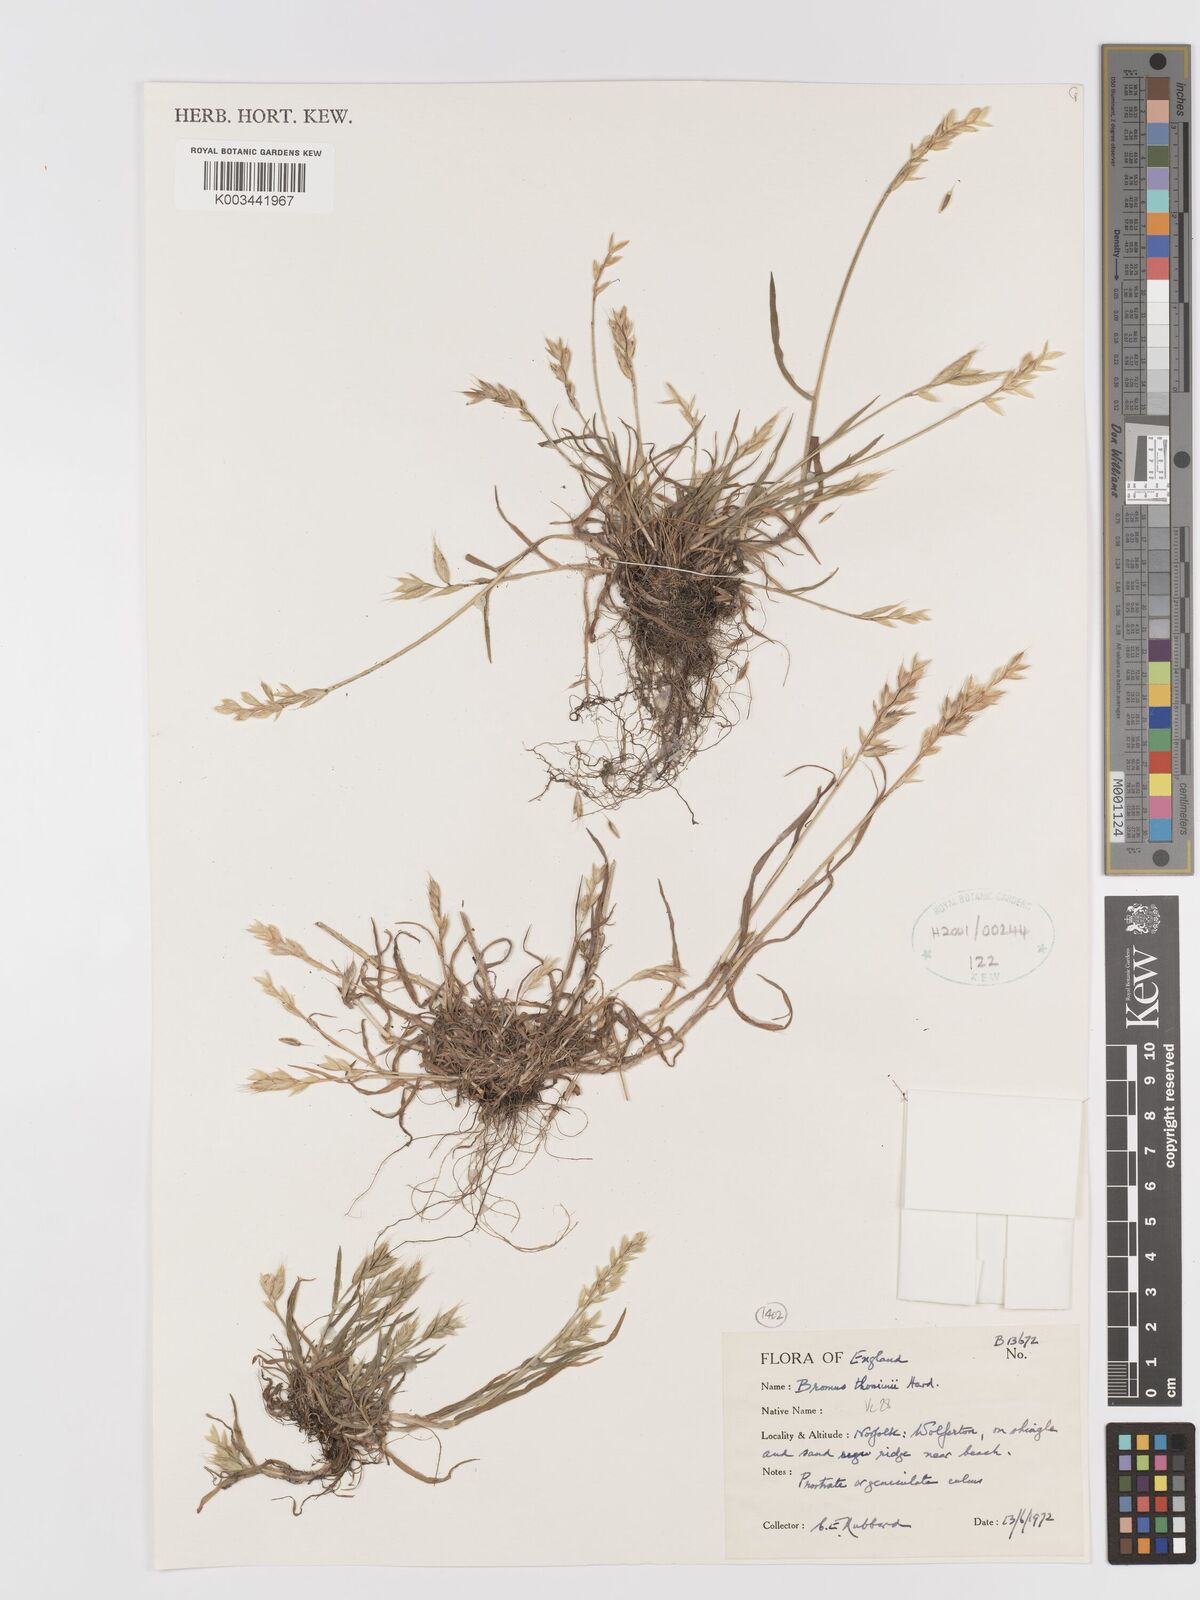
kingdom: Plantae
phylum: Tracheophyta
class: Liliopsida
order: Poales
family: Poaceae
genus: Bromus
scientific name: Bromus hordeaceus
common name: Soft brome
